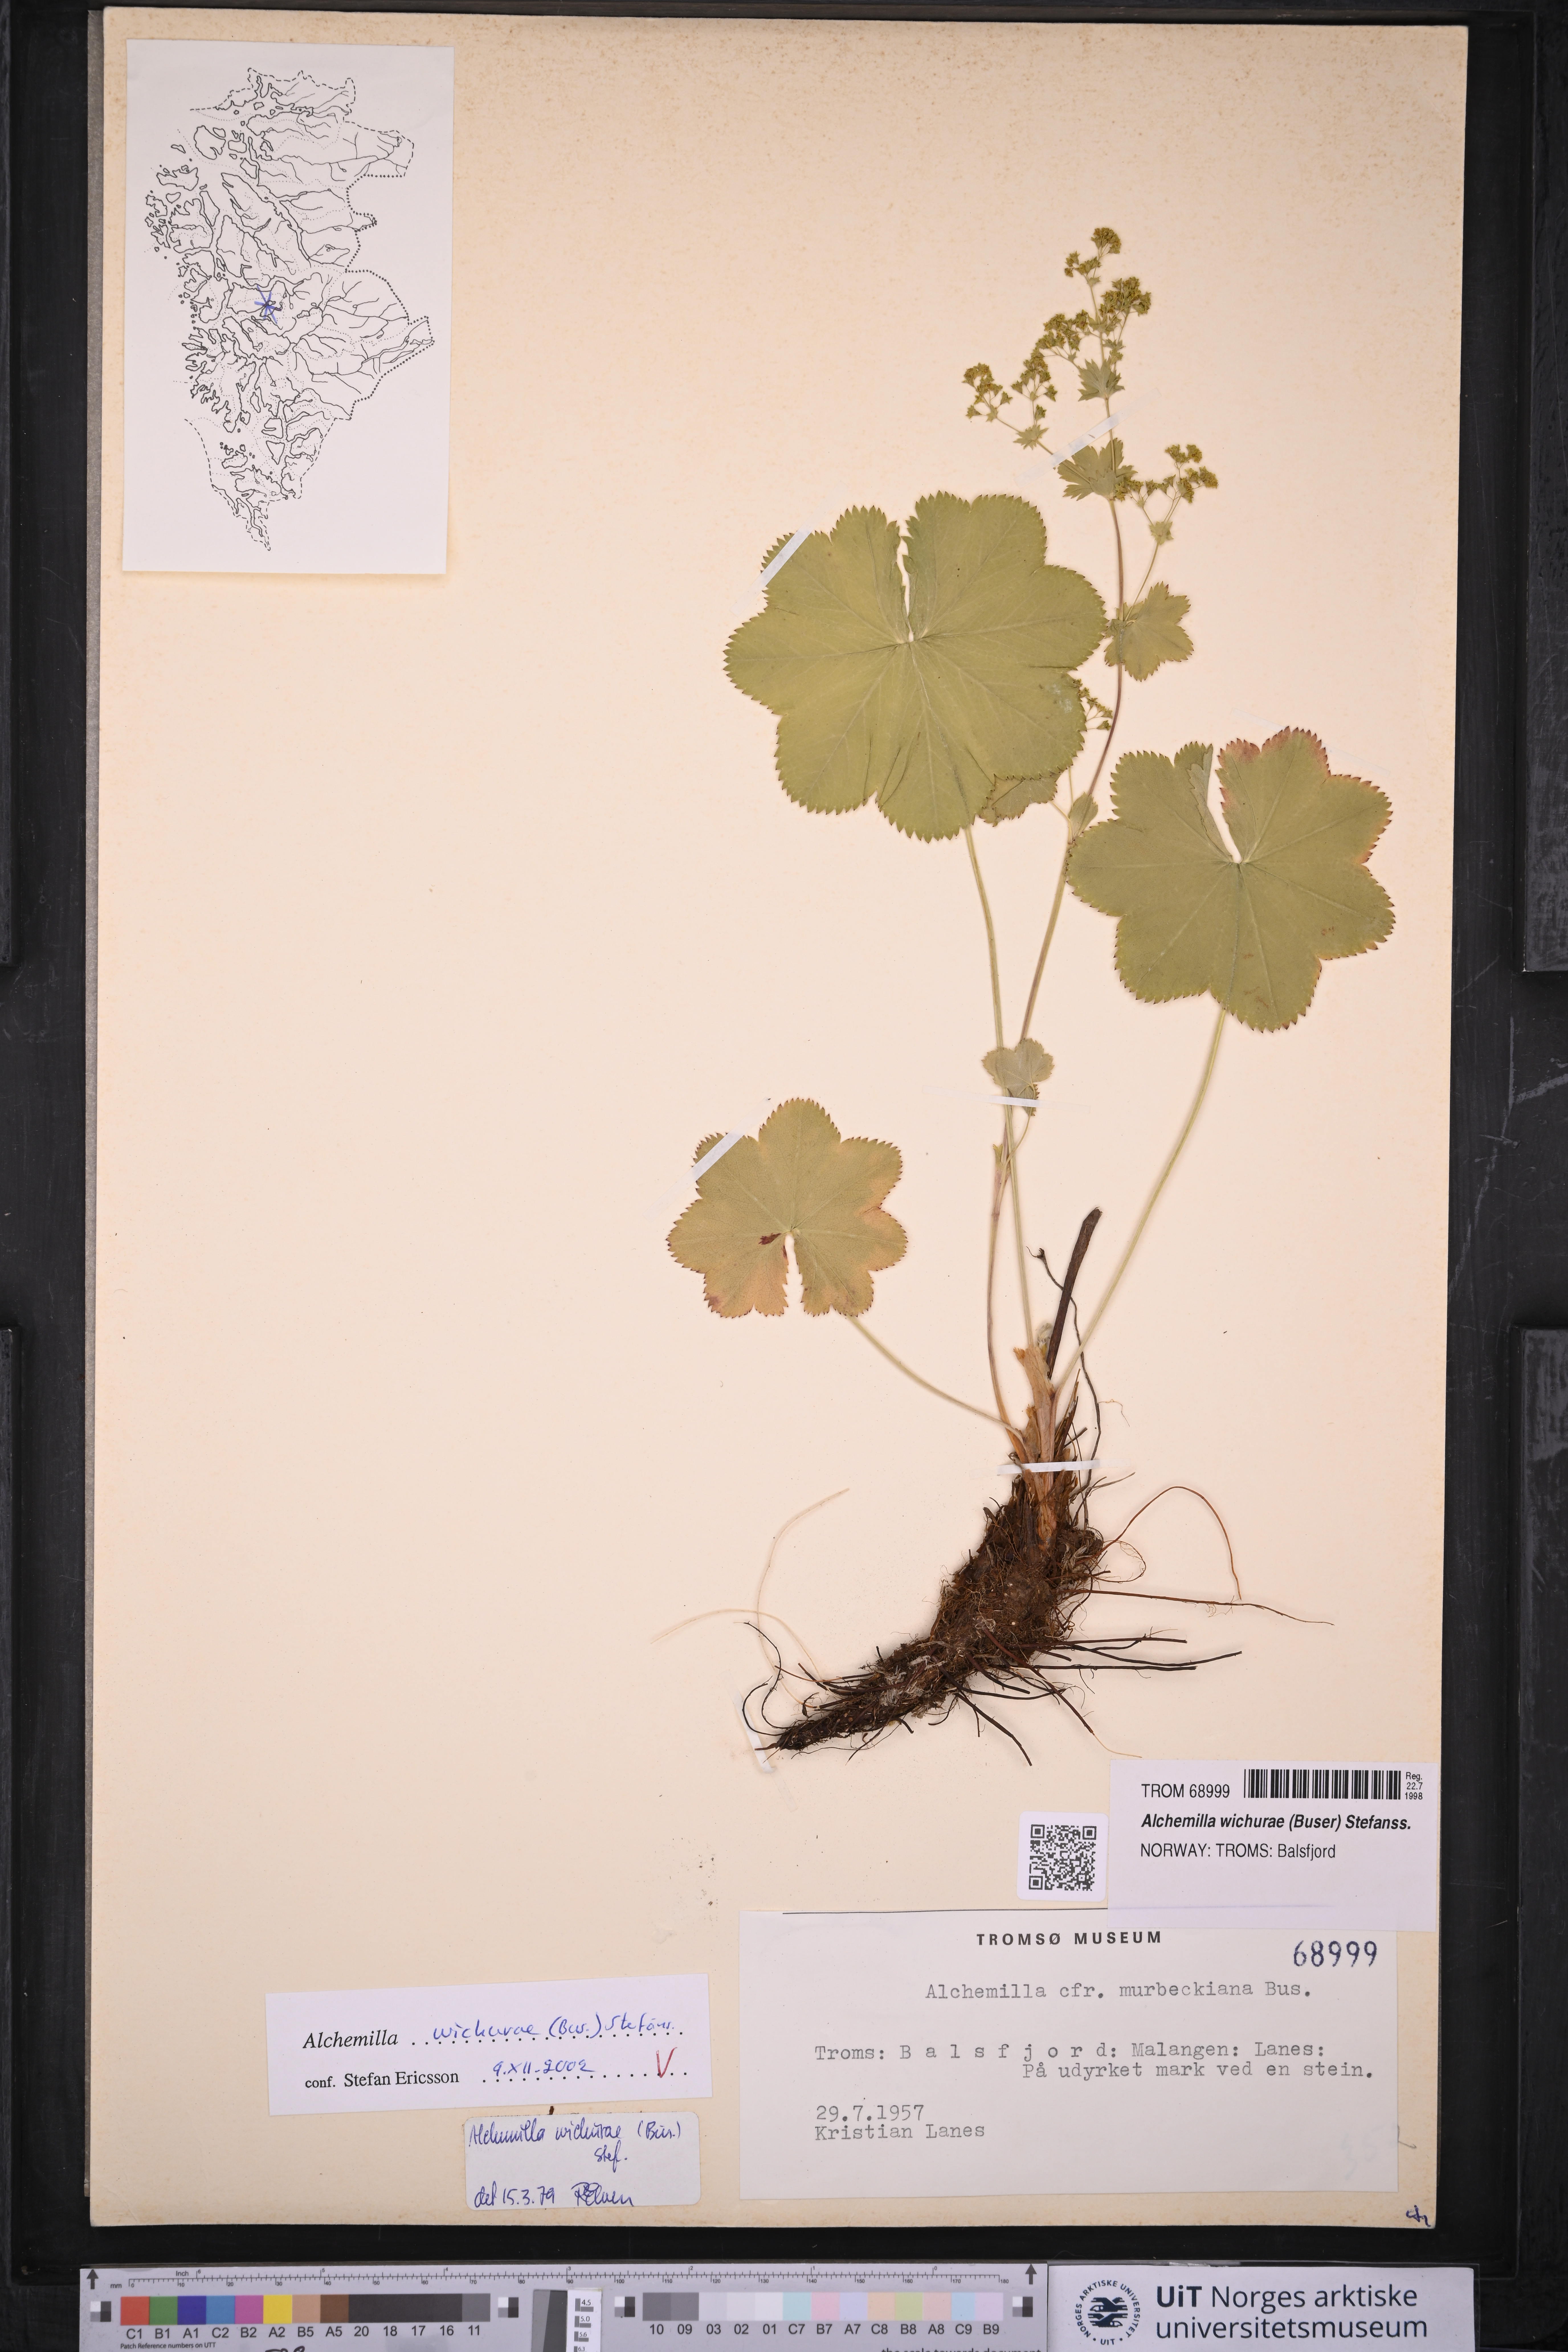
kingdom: Plantae
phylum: Tracheophyta
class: Magnoliopsida
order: Rosales
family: Rosaceae
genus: Alchemilla
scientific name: Alchemilla wichurae
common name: Rock lady's mantle
